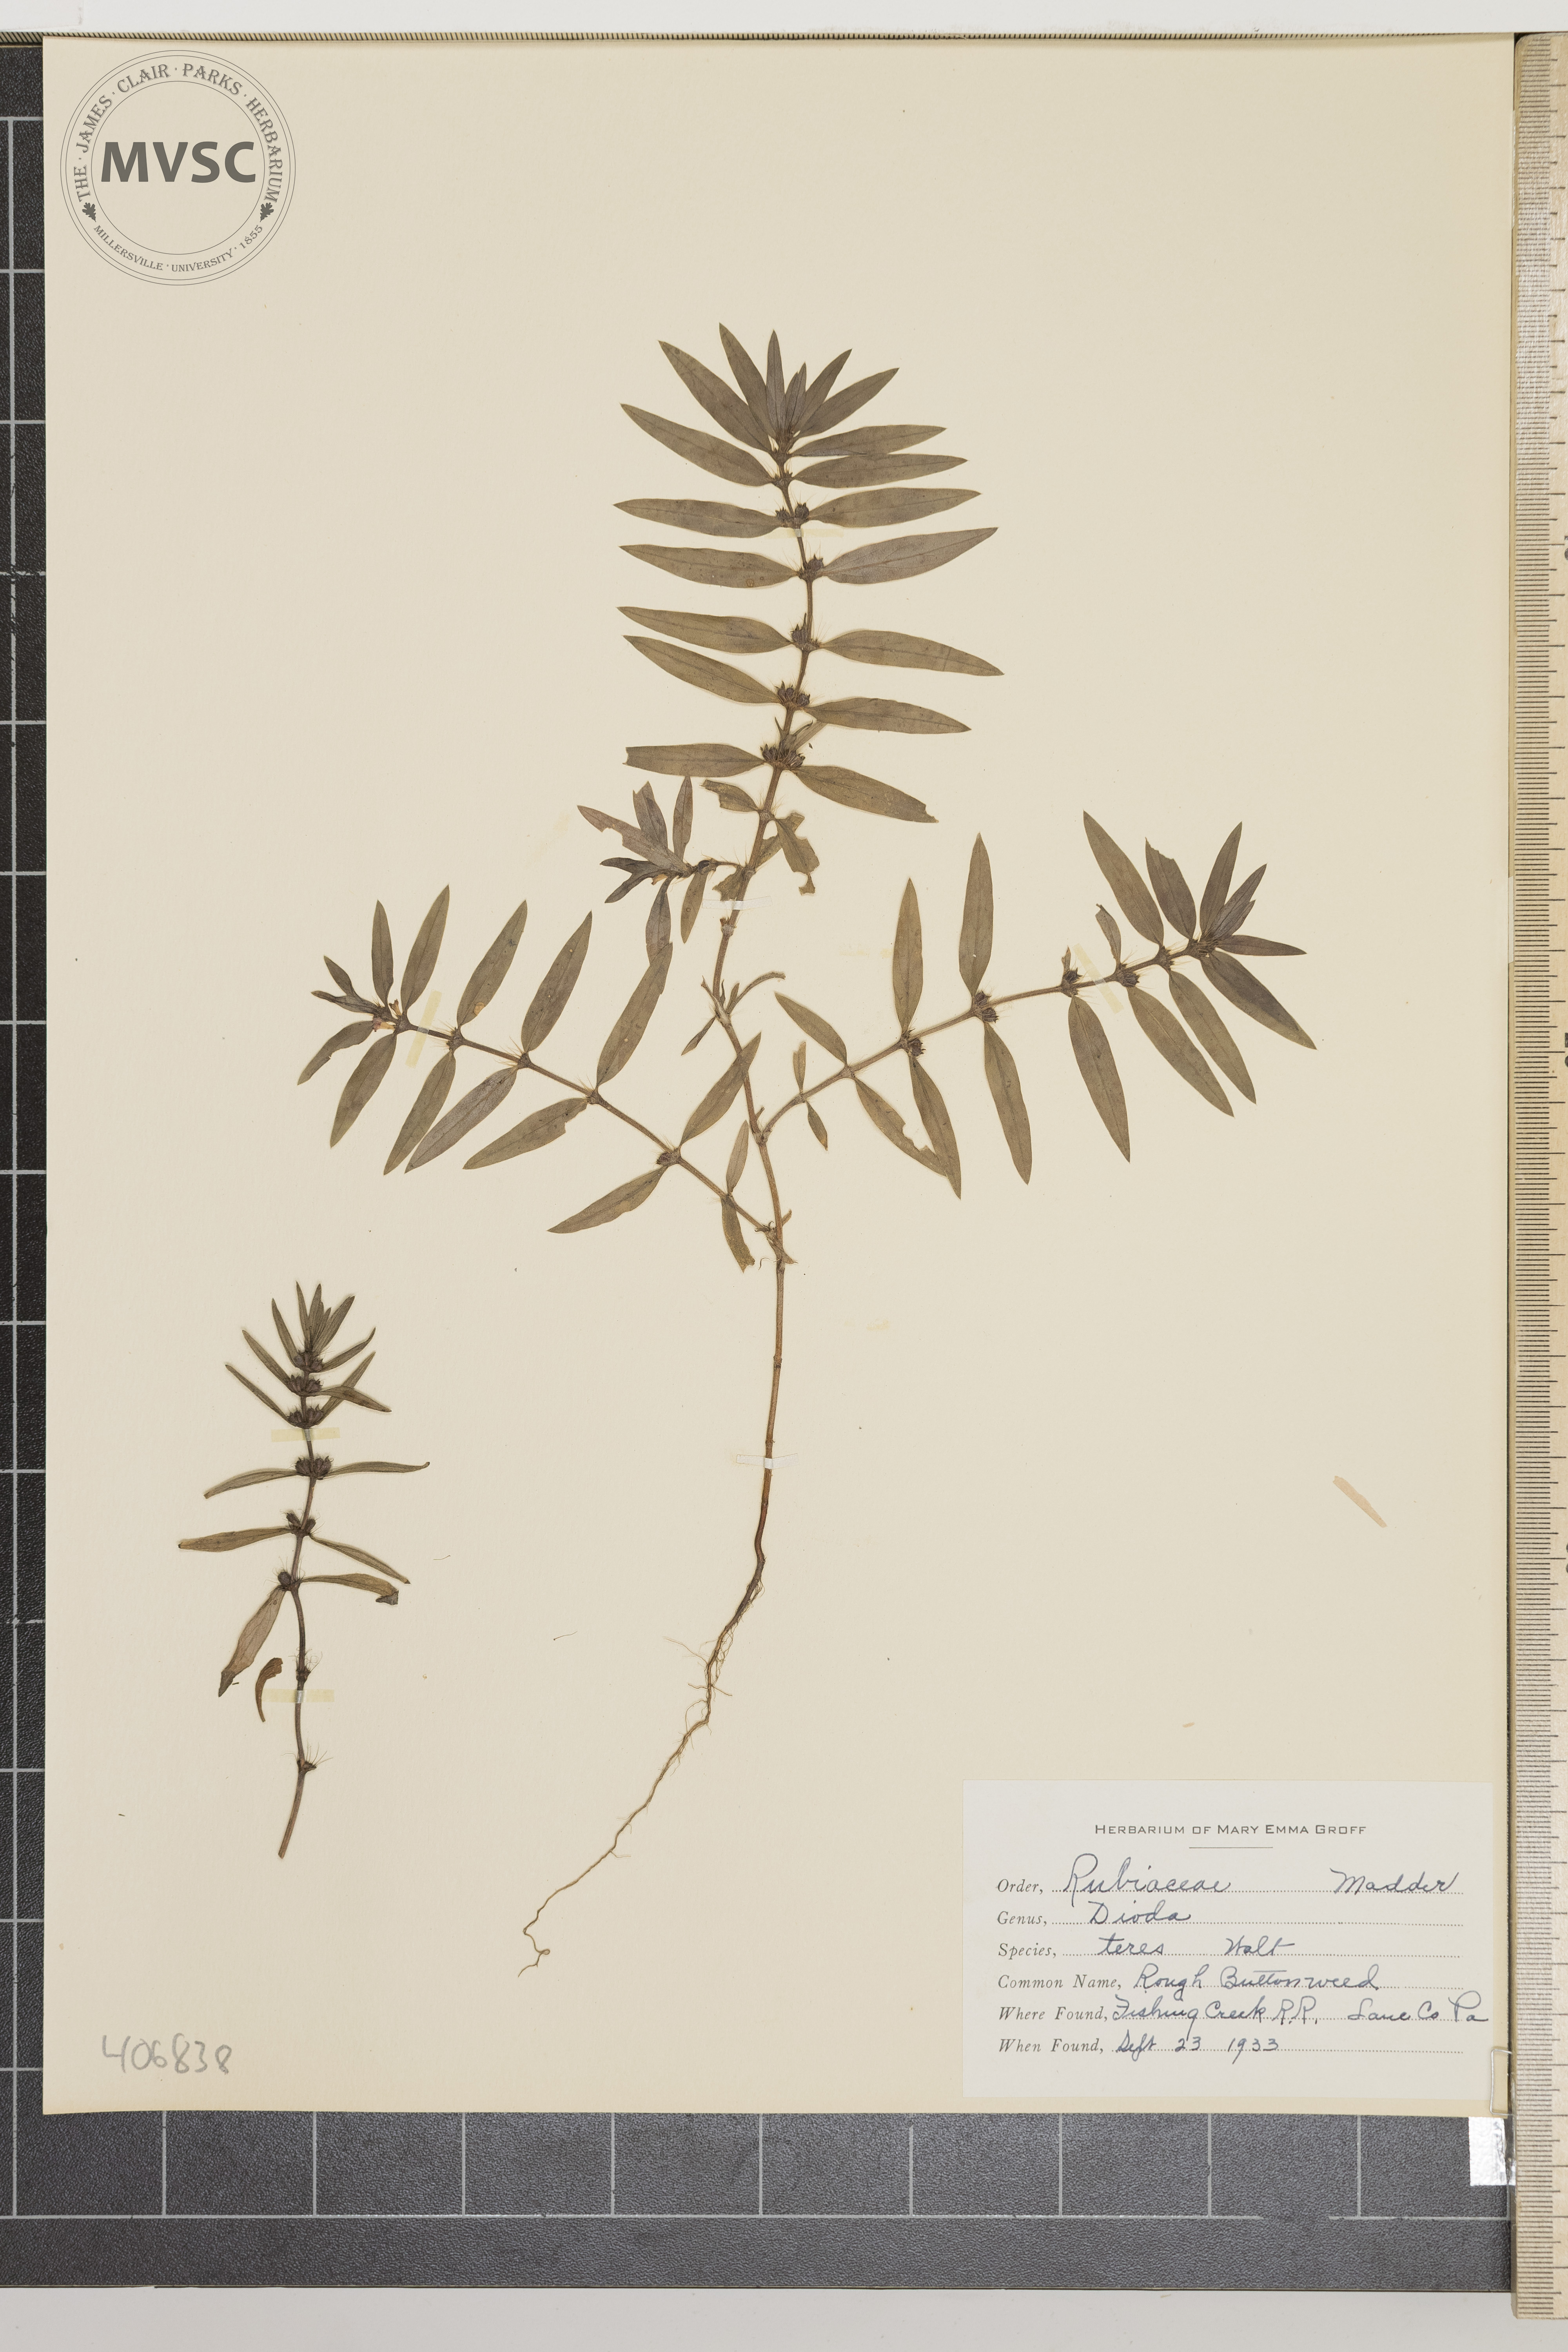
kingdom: Plantae
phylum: Tracheophyta
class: Magnoliopsida
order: Gentianales
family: Rubiaceae
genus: Hexasepalum
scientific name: Hexasepalum teres
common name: Rough Buttonweed
